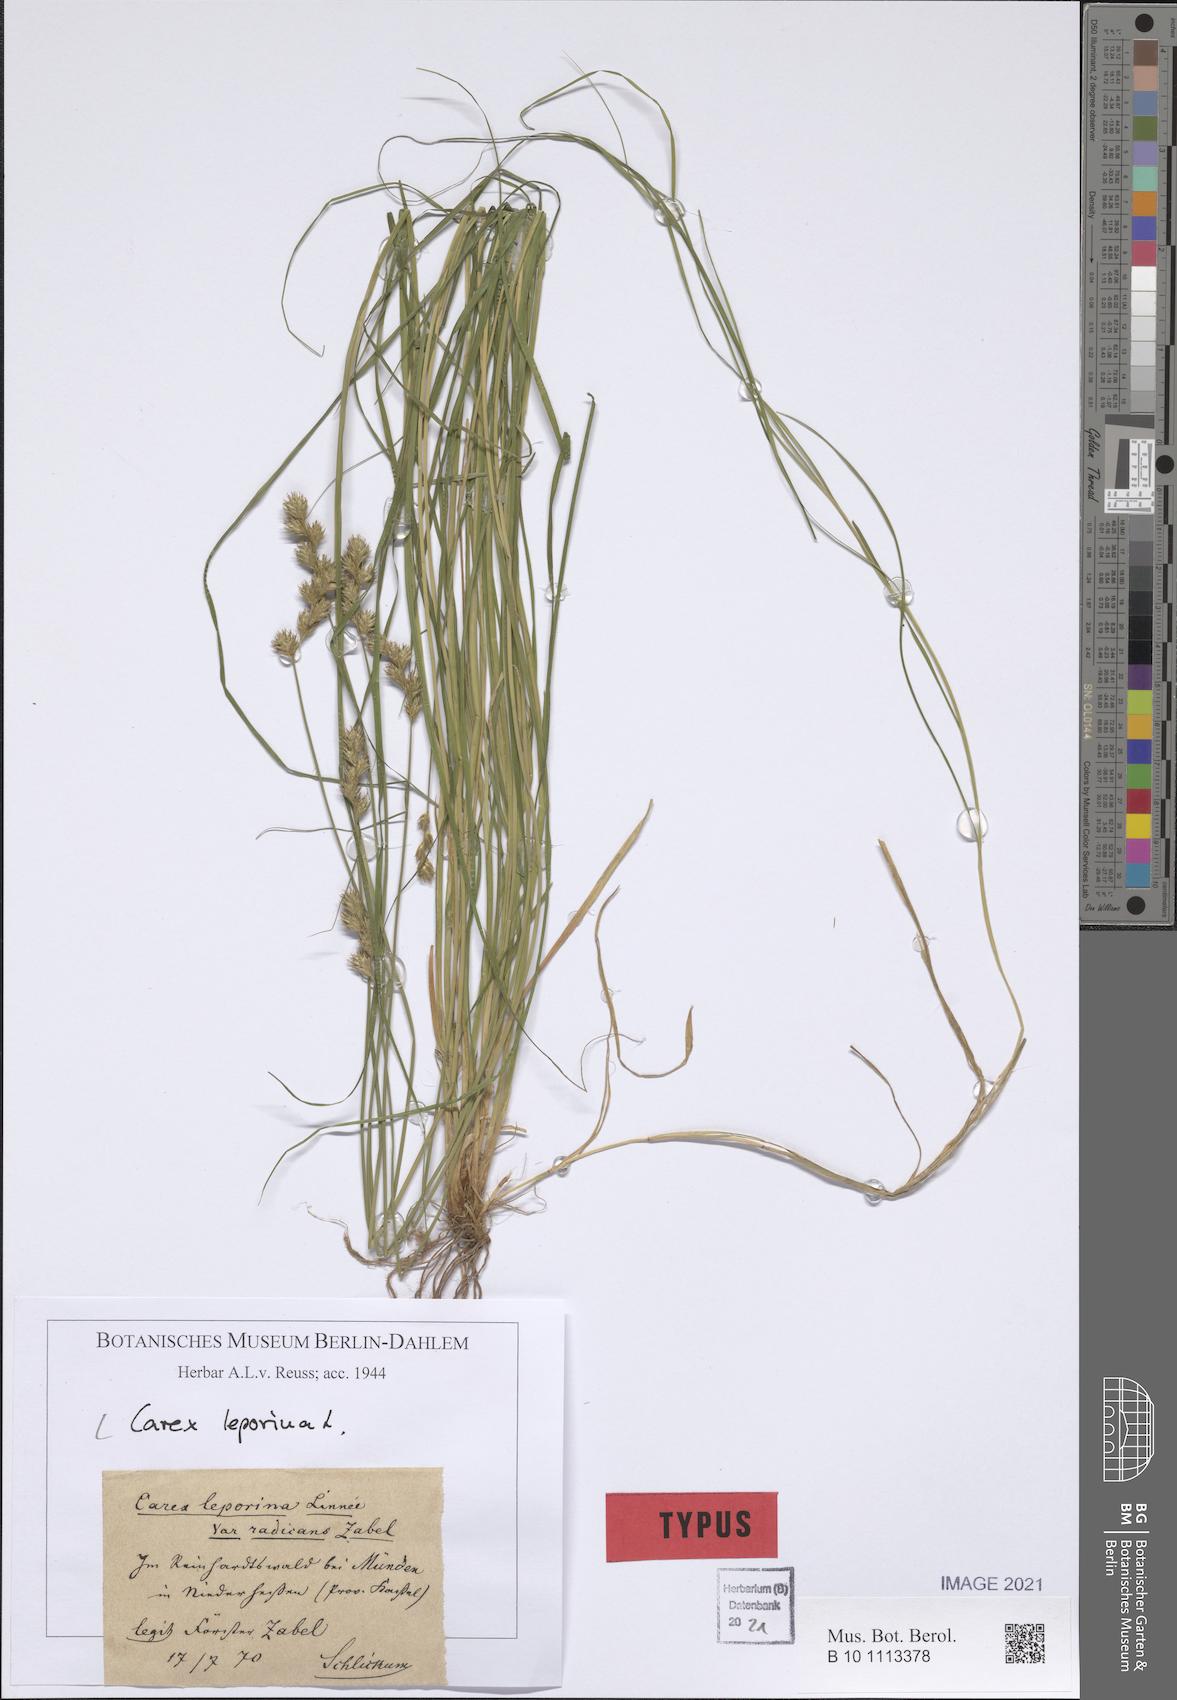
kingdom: Plantae
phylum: Tracheophyta
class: Liliopsida
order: Poales
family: Cyperaceae
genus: Carex
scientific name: Carex leporina
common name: Oval sedge
